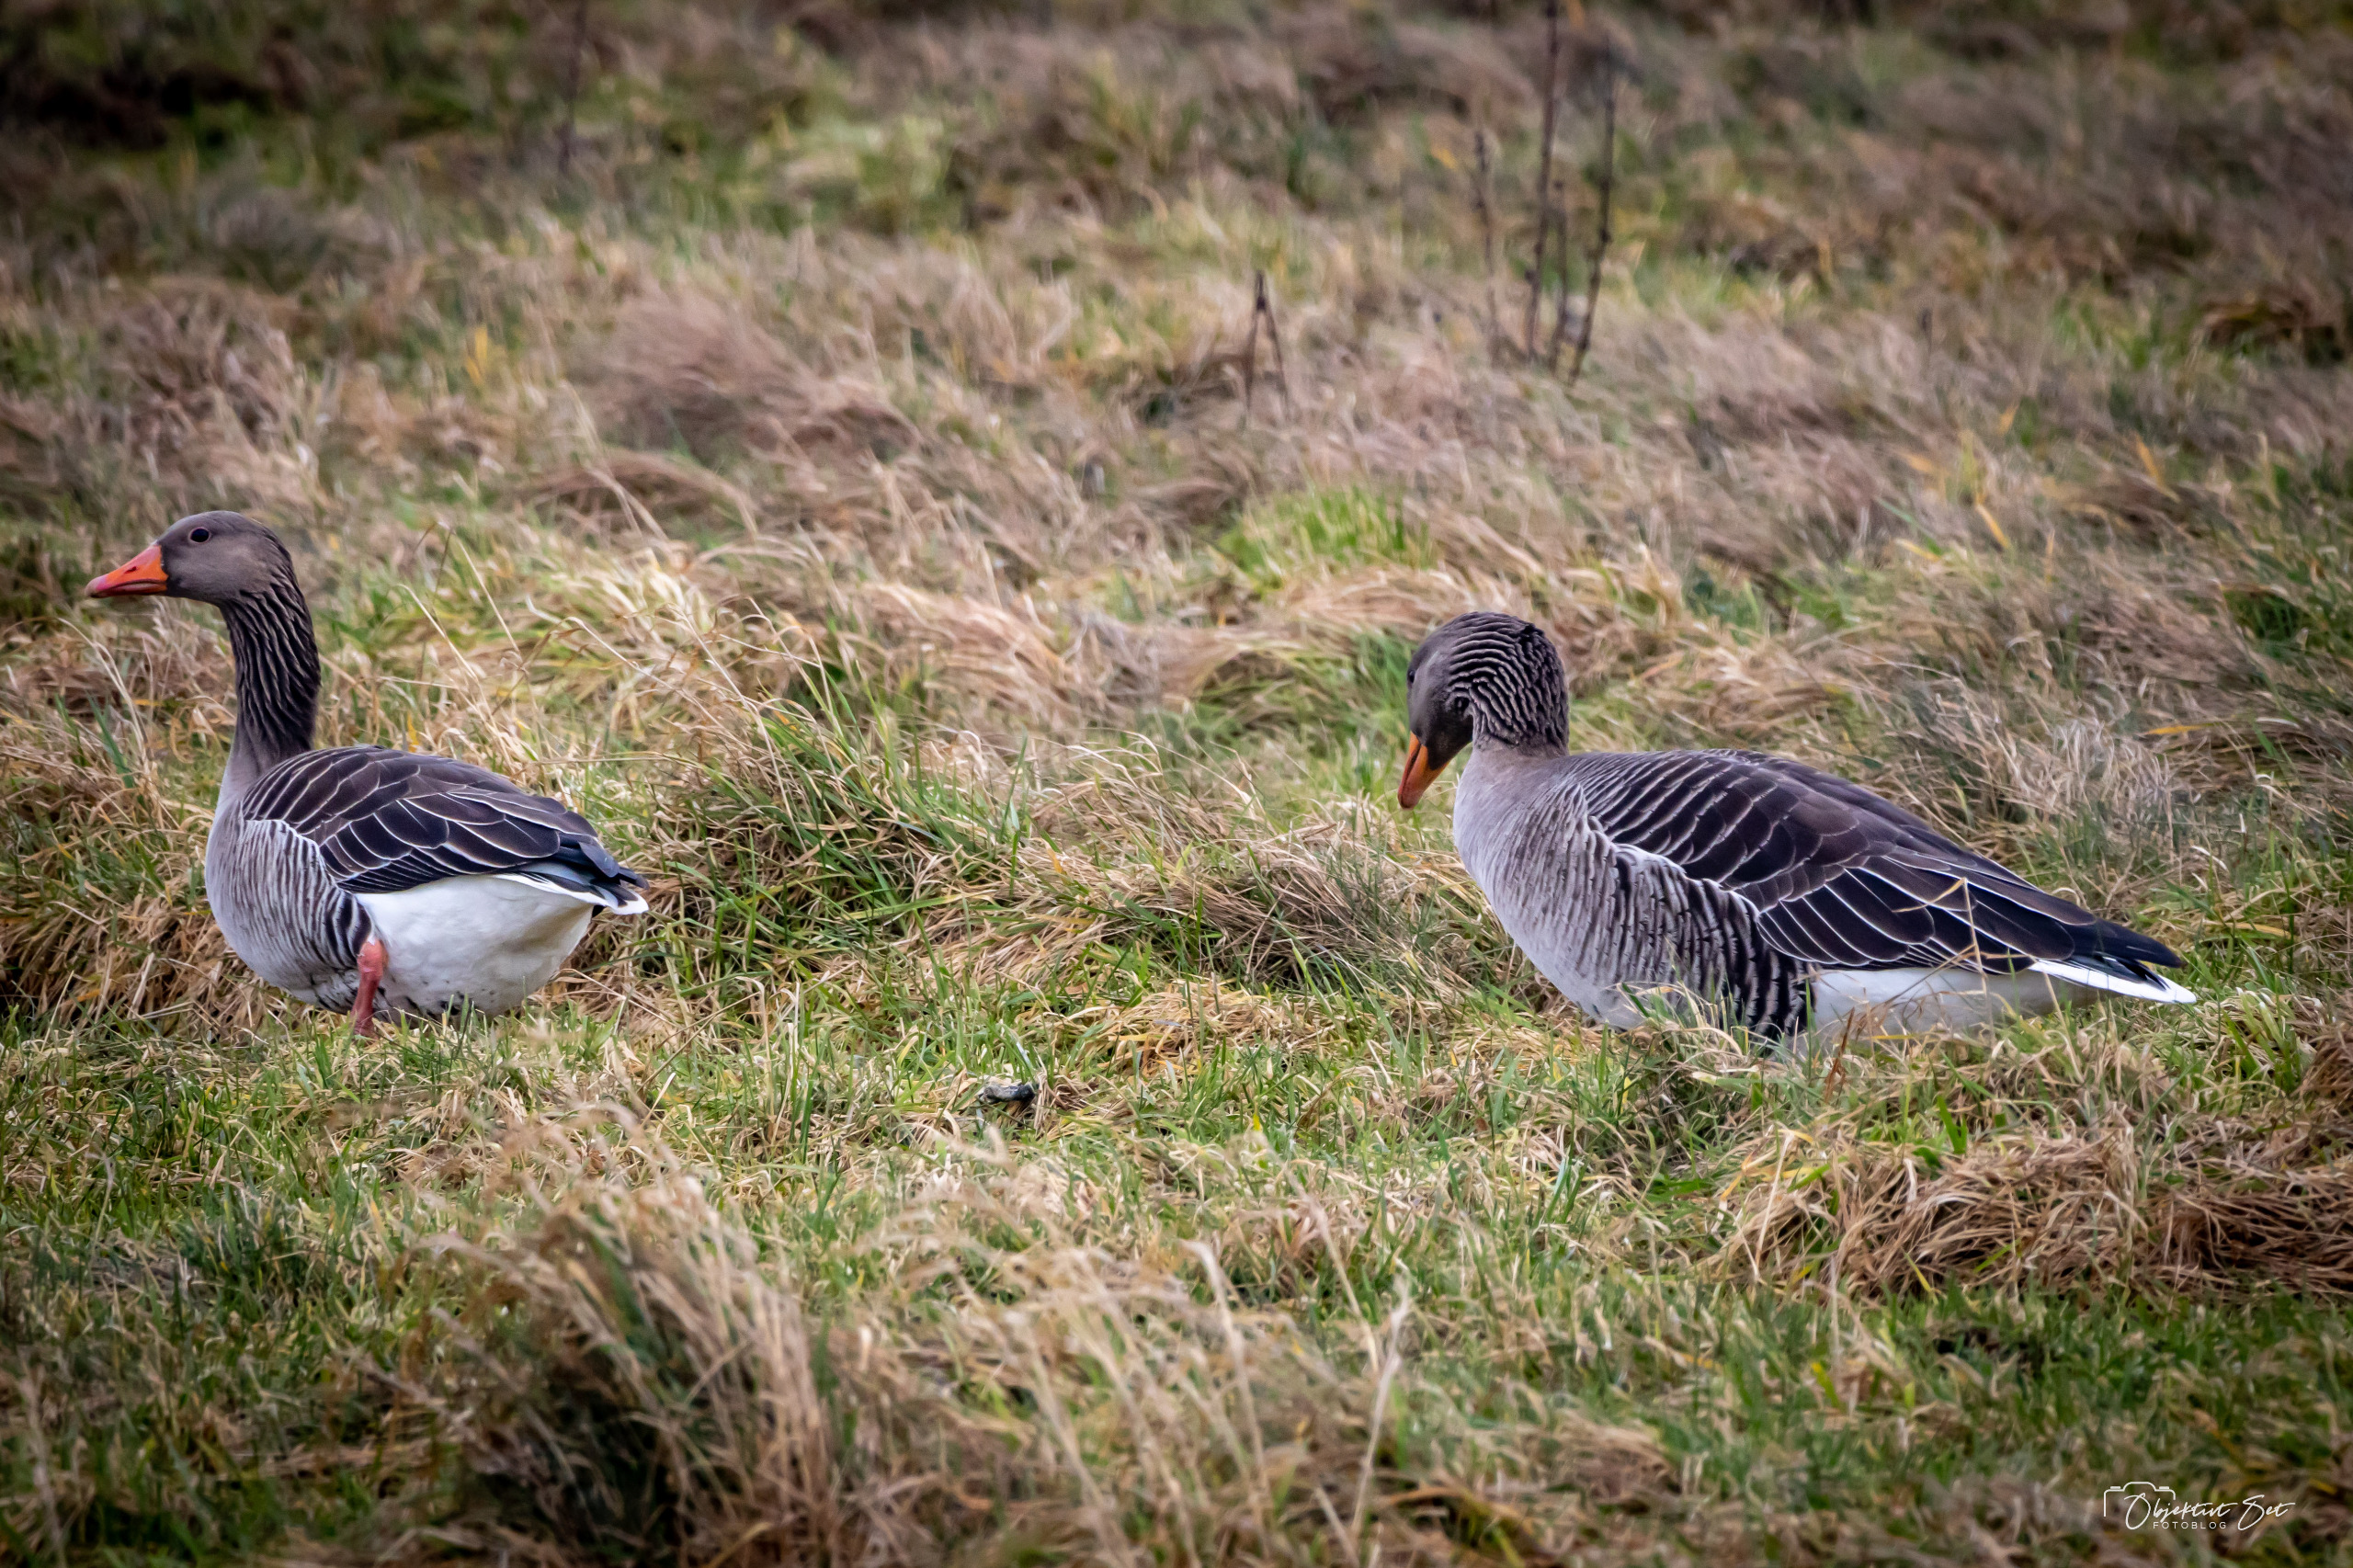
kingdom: Animalia
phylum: Chordata
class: Aves
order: Anseriformes
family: Anatidae
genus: Anser
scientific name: Anser anser
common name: Grågås
